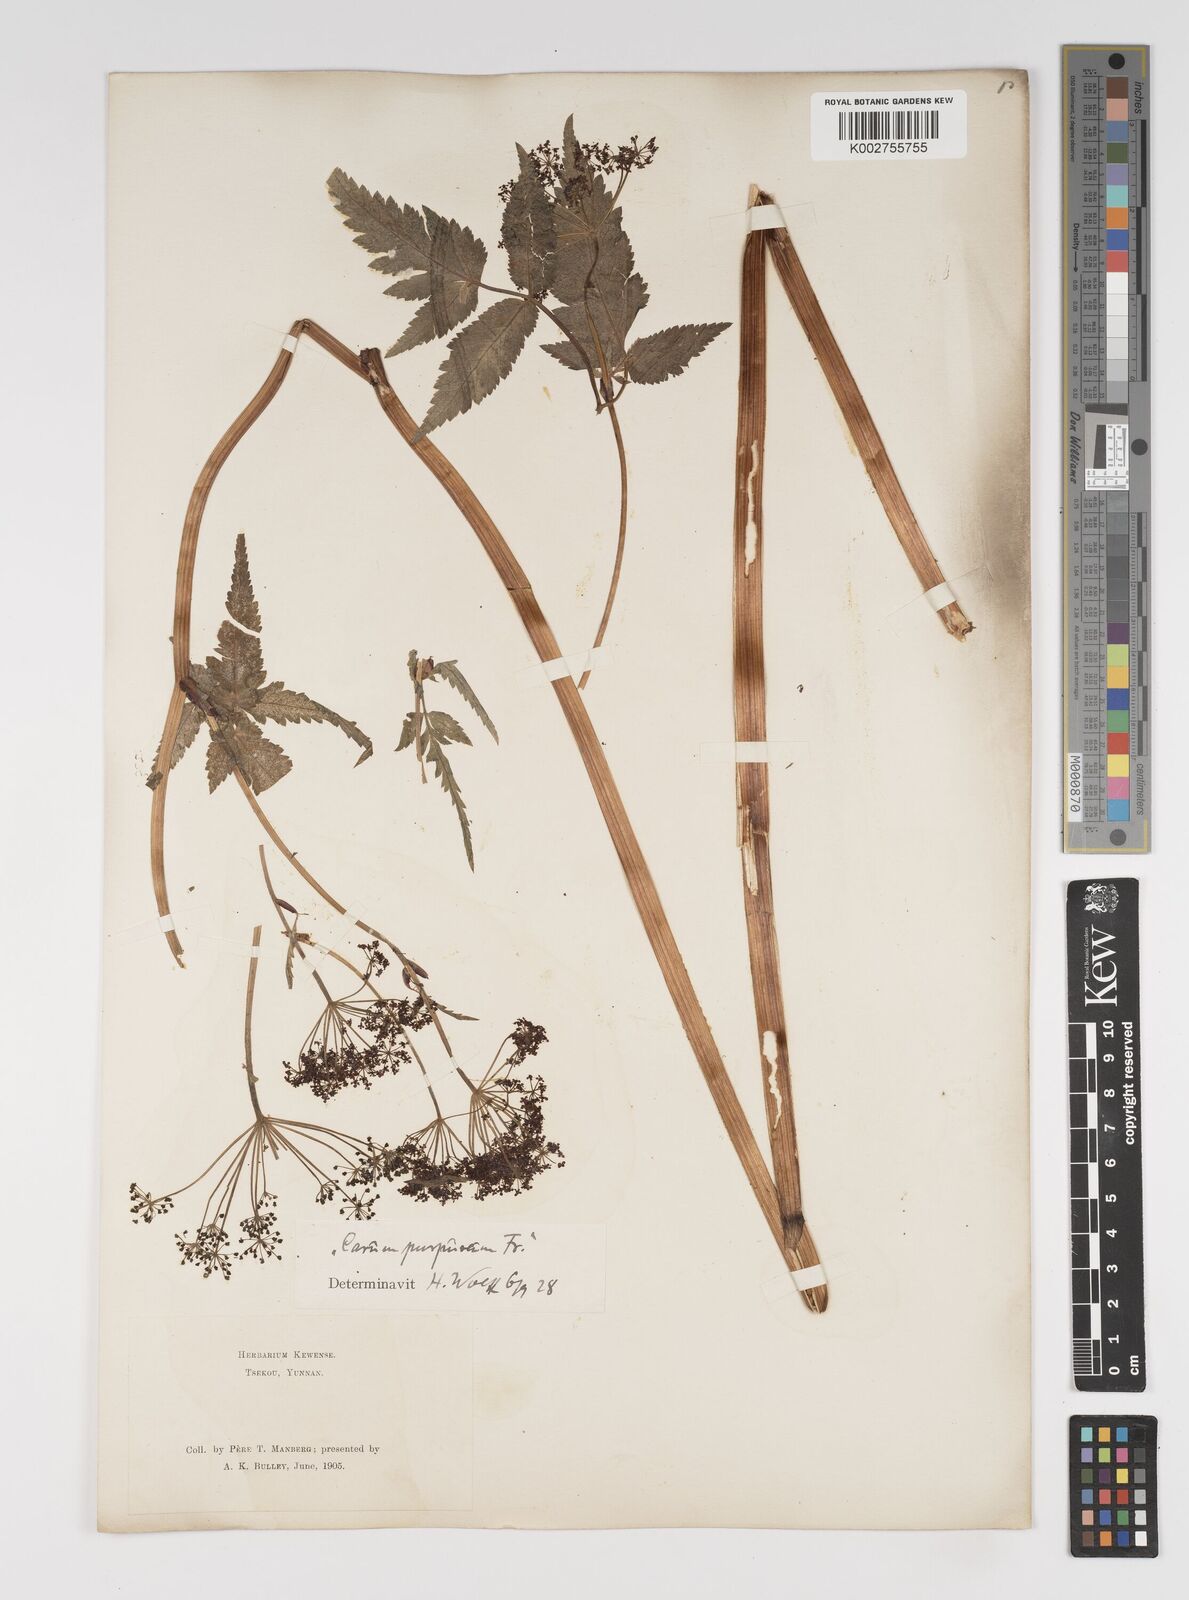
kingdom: Plantae
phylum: Tracheophyta
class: Magnoliopsida
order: Apiales
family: Apiaceae
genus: Pimpinella
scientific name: Pimpinella purpurea
